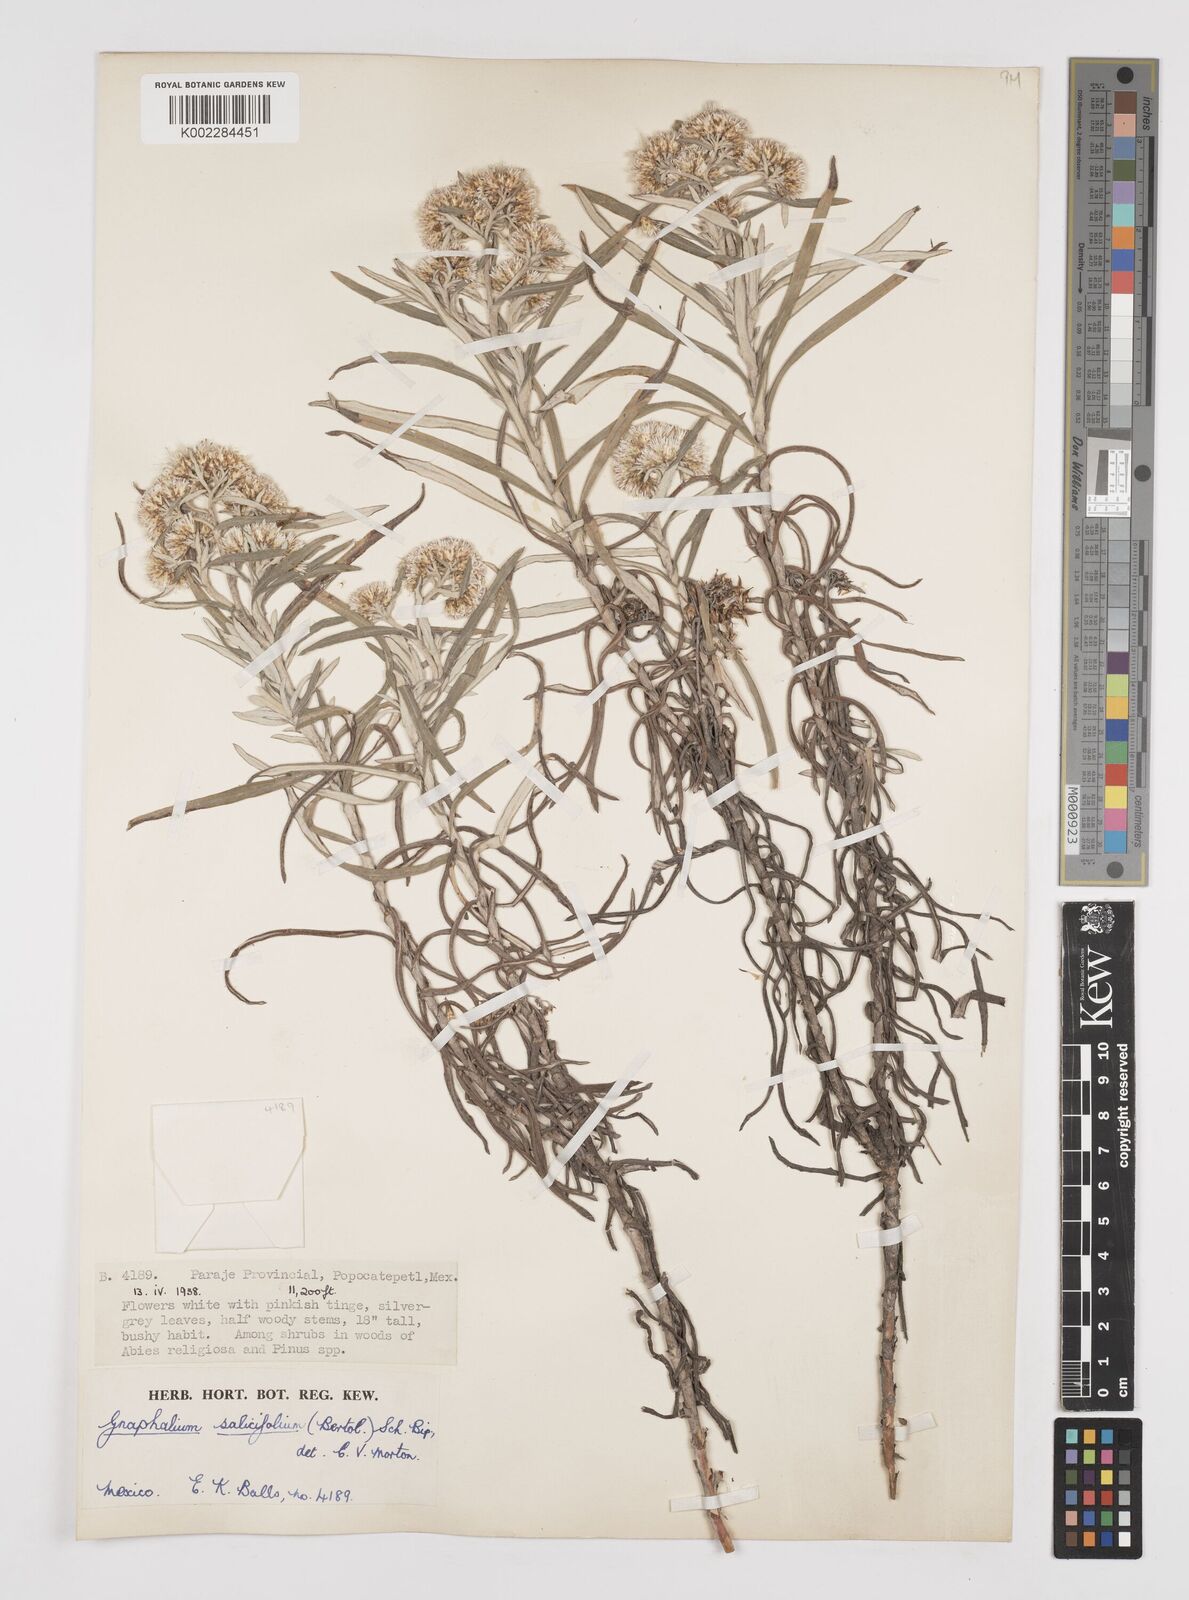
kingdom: Plantae
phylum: Tracheophyta
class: Magnoliopsida
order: Asterales
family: Asteraceae
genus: Gnaphaliothamnus
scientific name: Gnaphaliothamnus salicifolius
